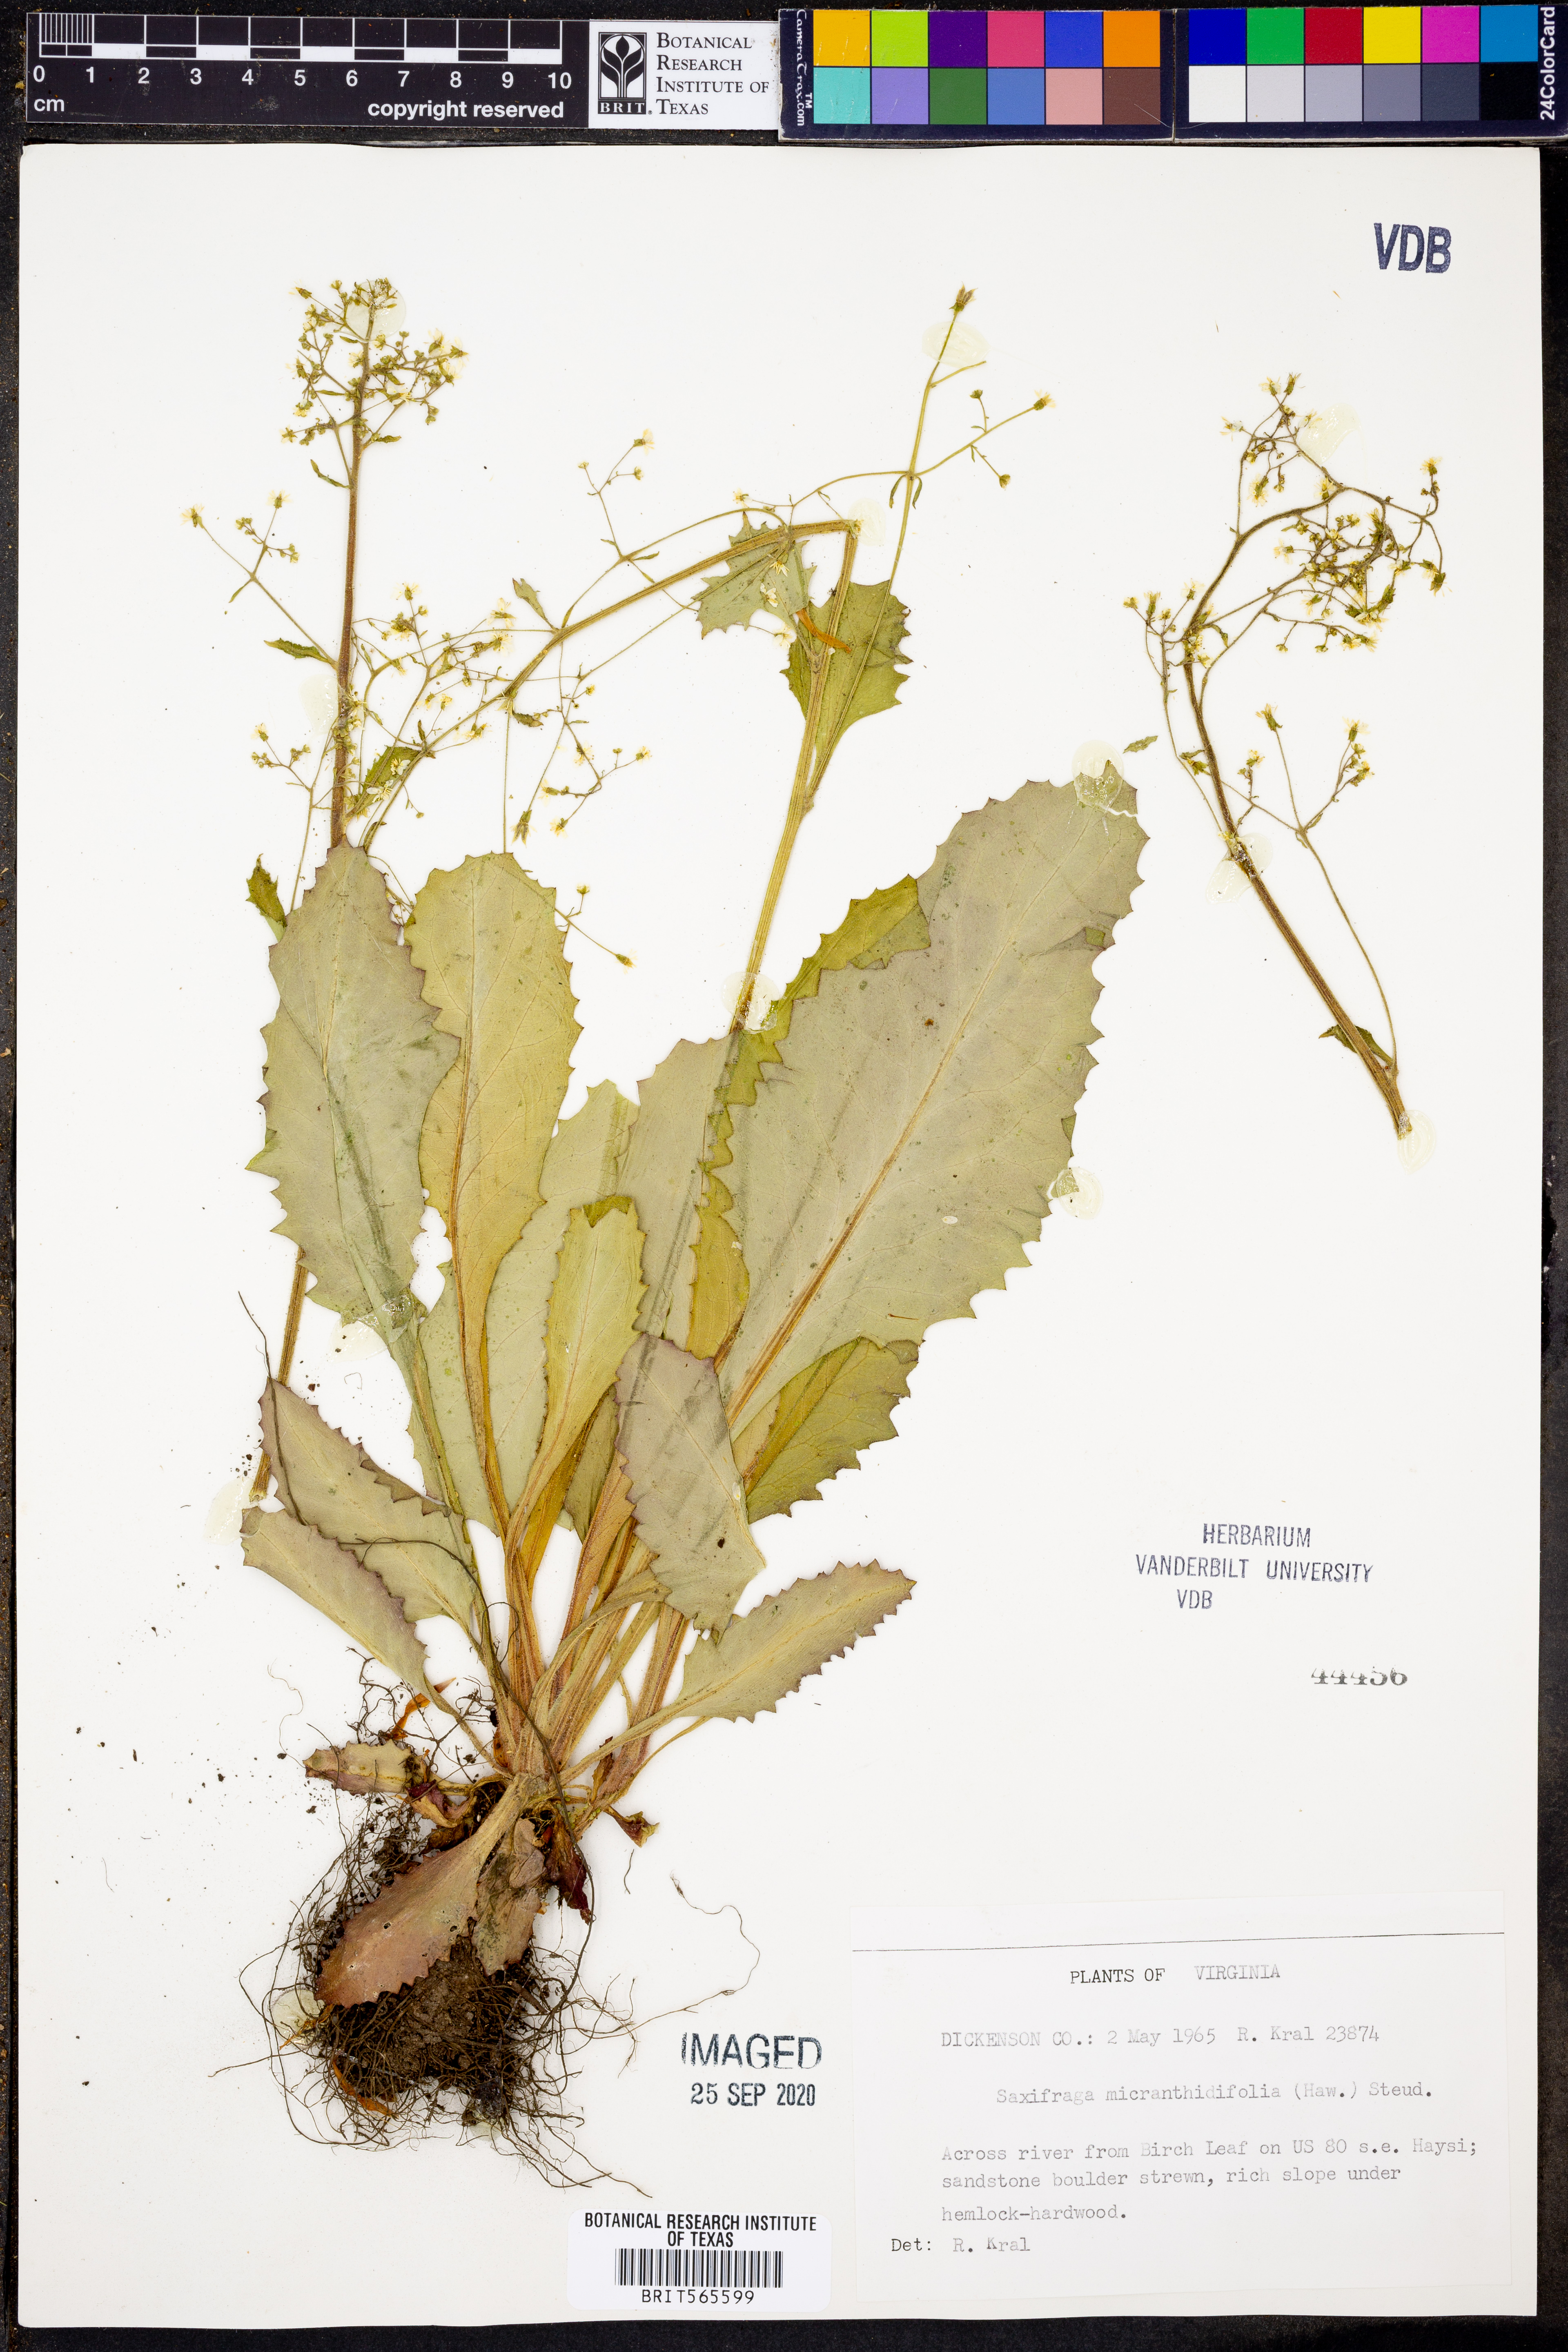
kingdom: Plantae
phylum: Tracheophyta
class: Magnoliopsida
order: Saxifragales
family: Saxifragaceae
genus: Micranthes
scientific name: Micranthes micranthidifolia
